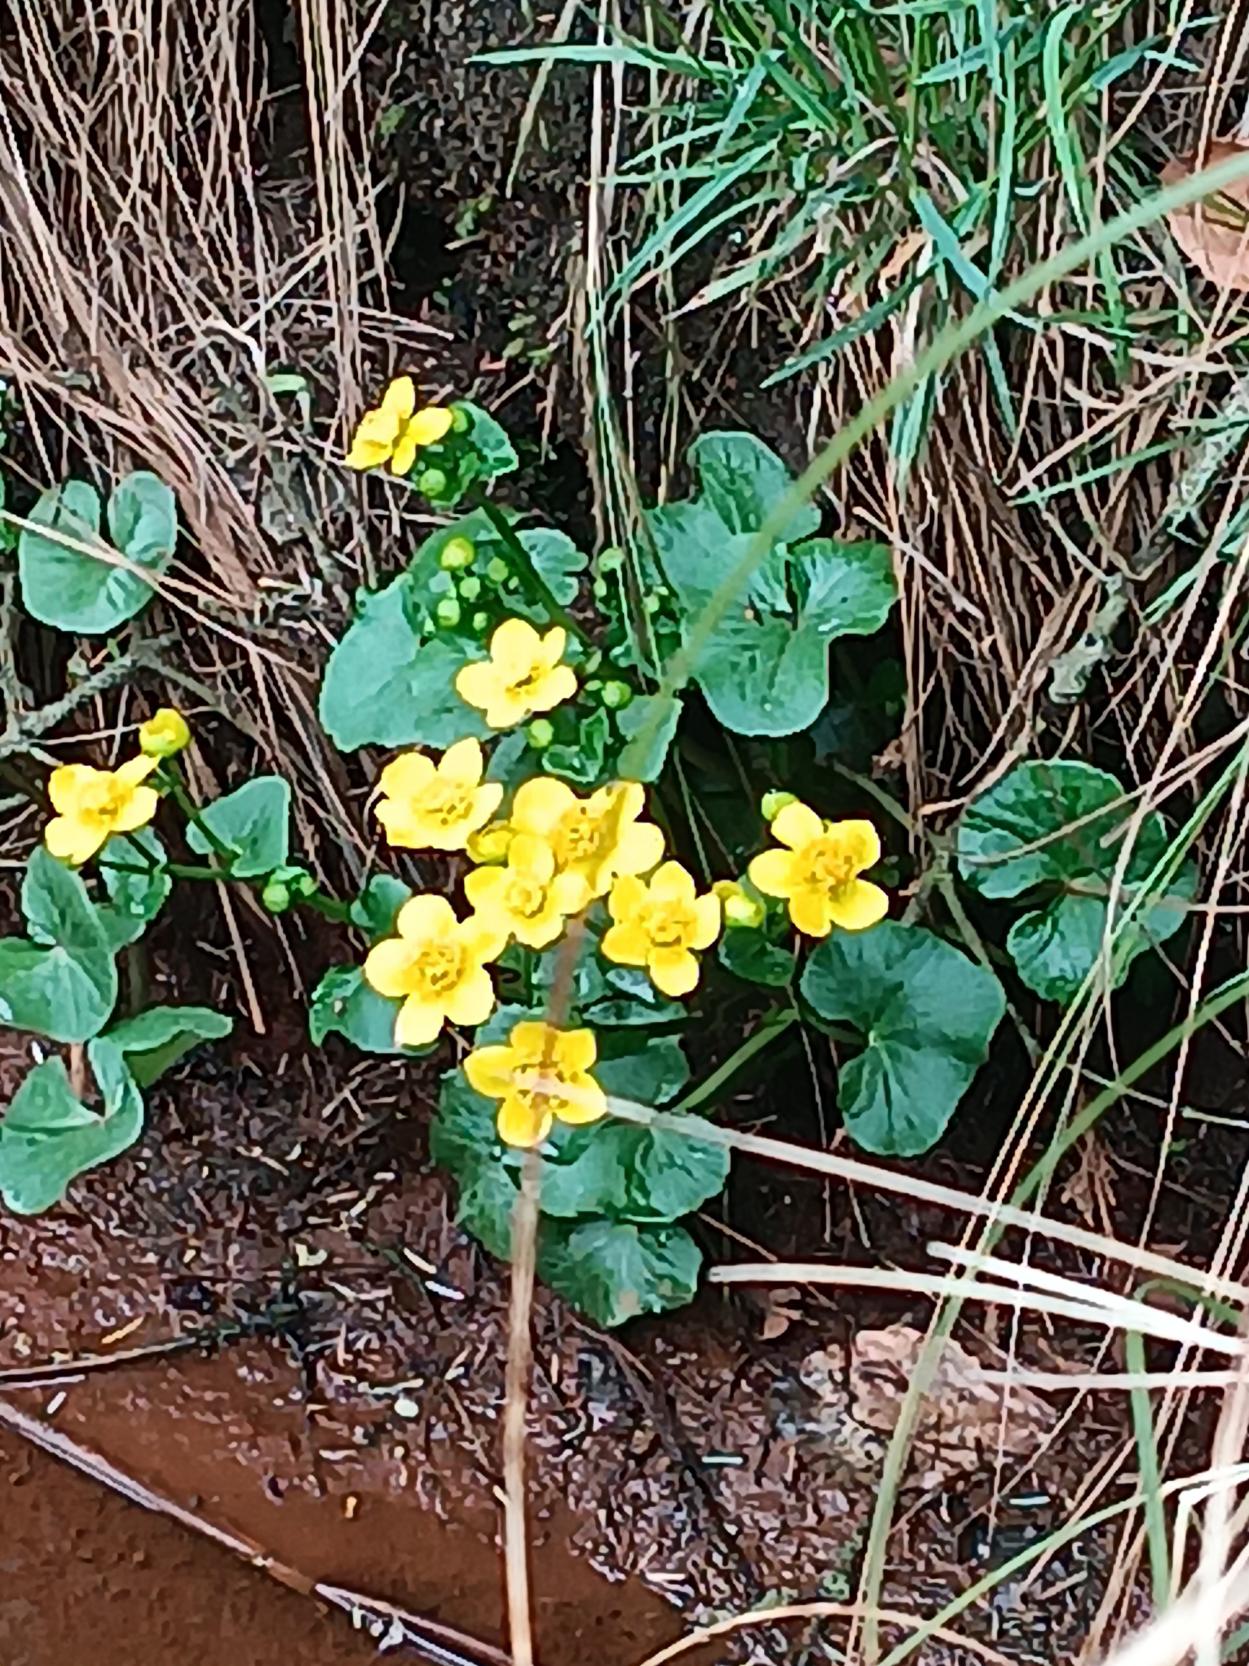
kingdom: Plantae
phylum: Tracheophyta
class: Magnoliopsida
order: Ranunculales
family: Ranunculaceae
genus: Caltha
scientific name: Caltha palustris
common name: Eng-kabbeleje
